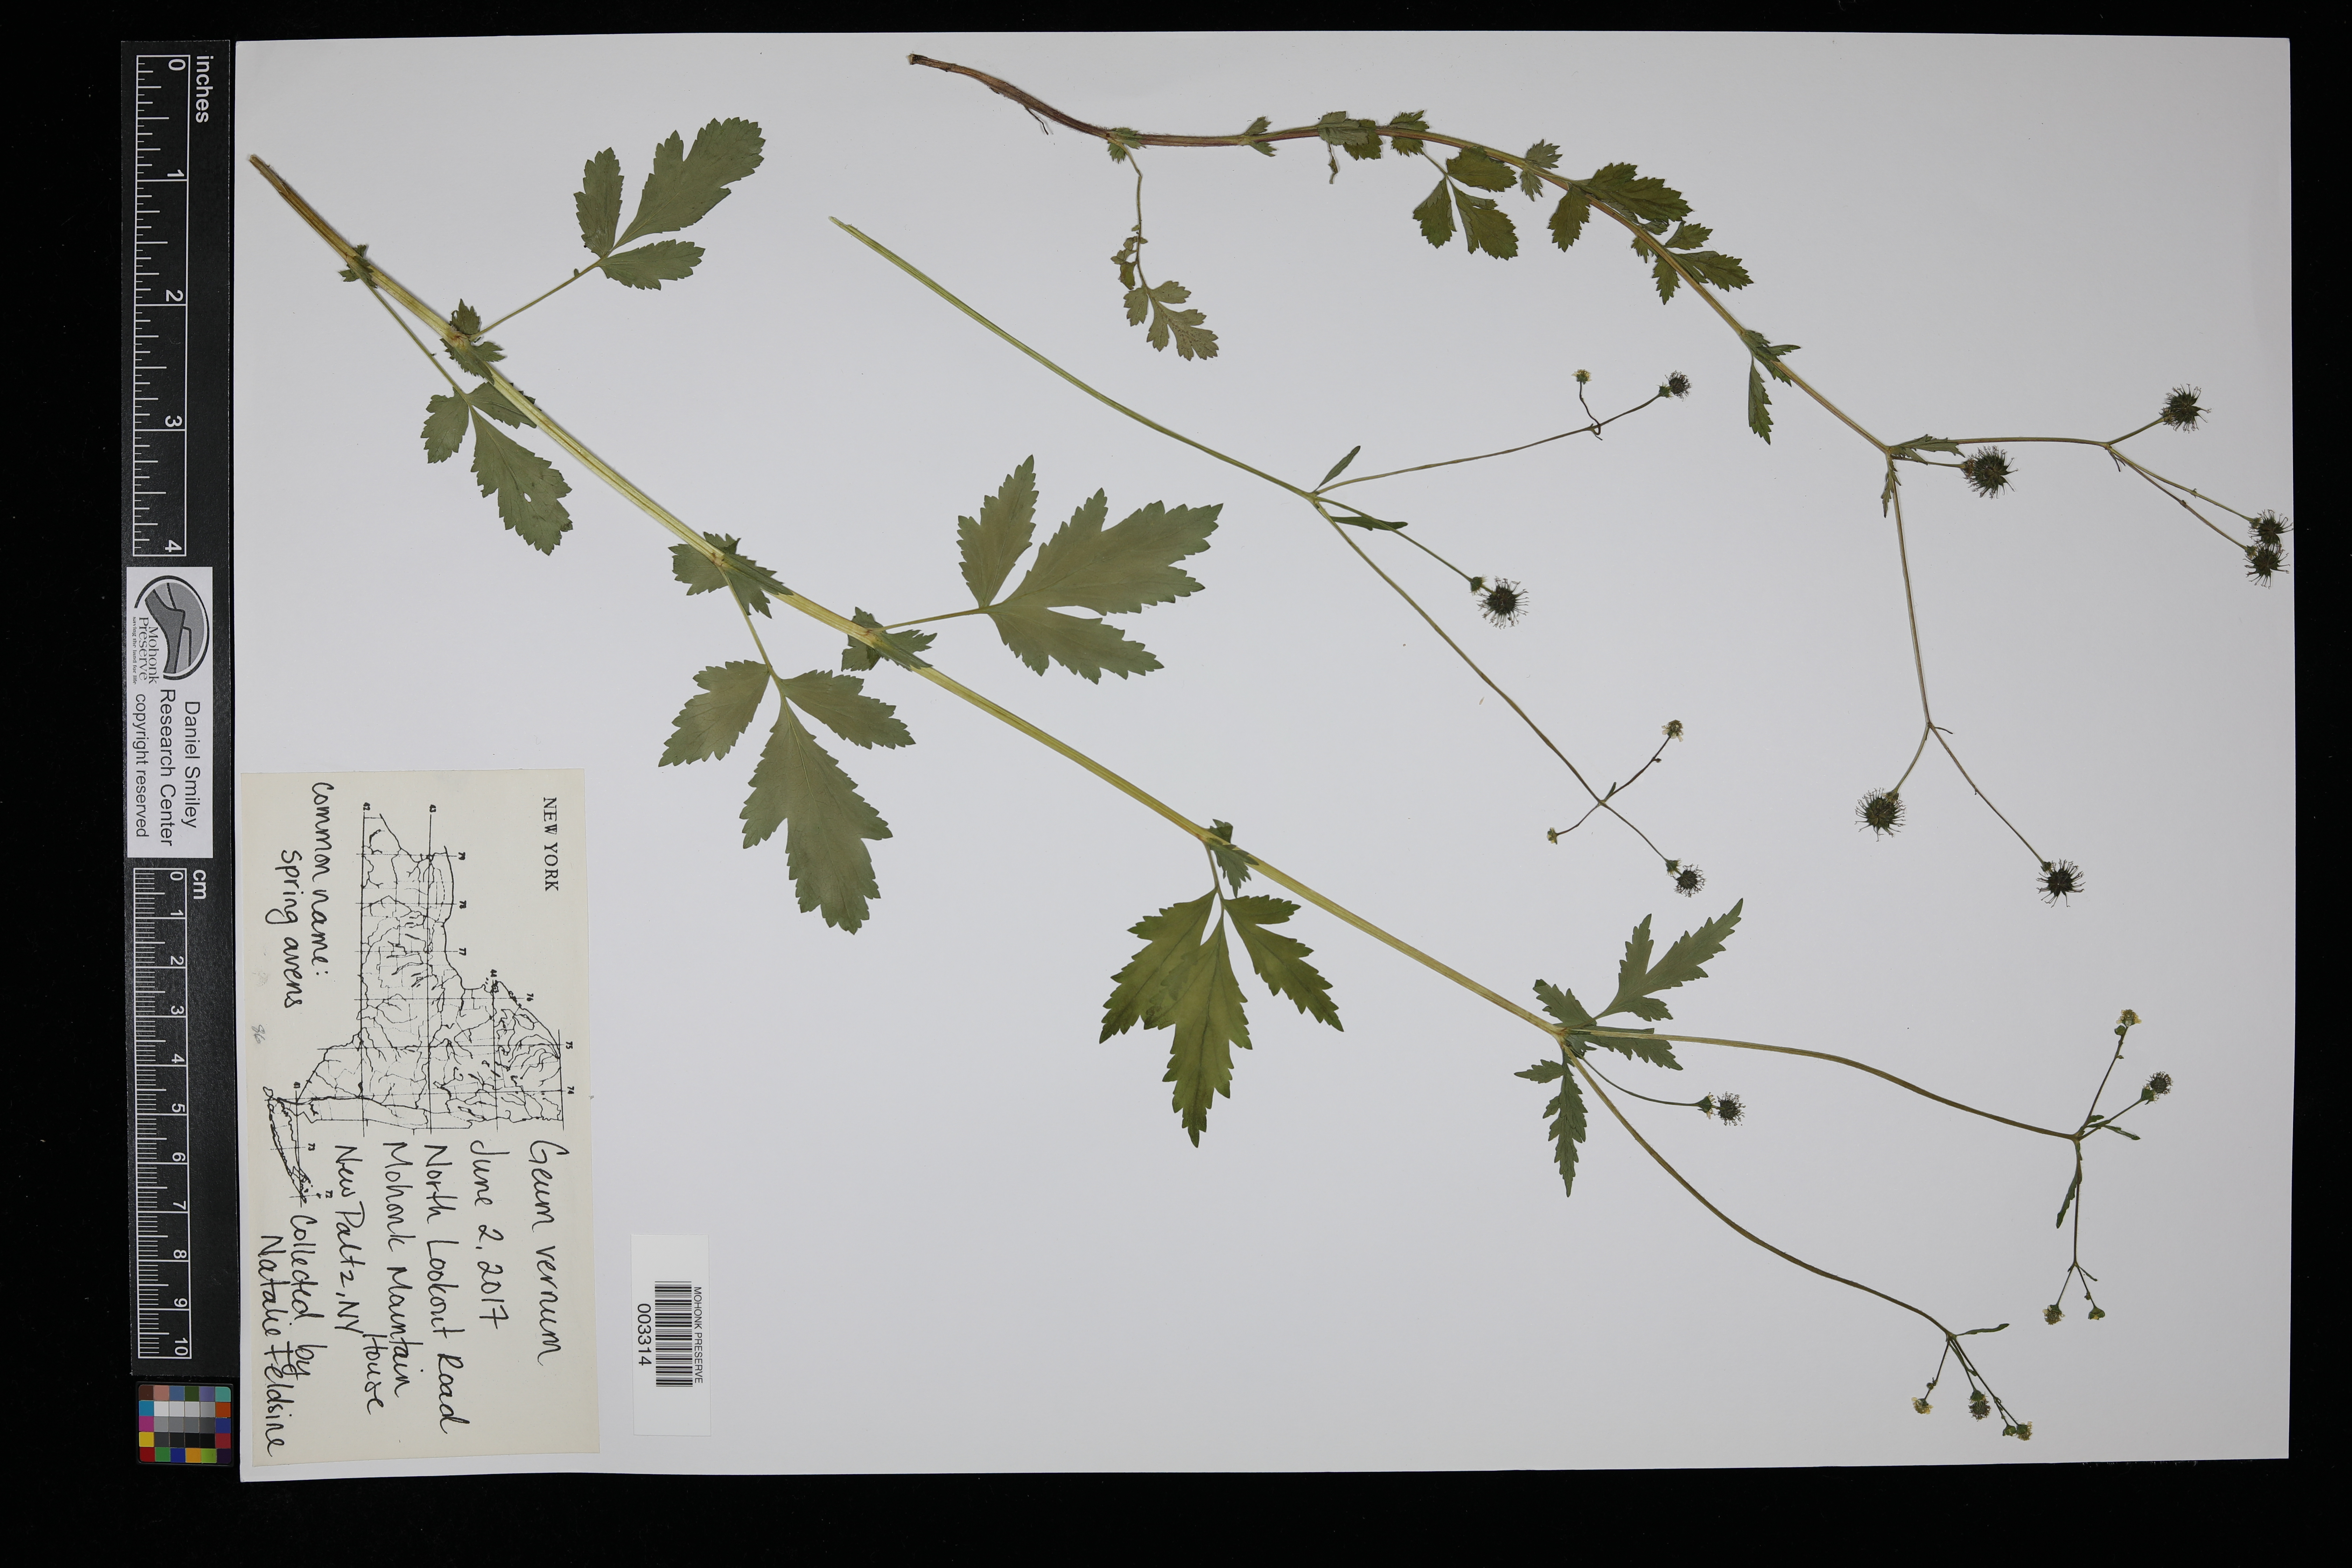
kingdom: Plantae
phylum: Tracheophyta
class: Magnoliopsida
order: Rosales
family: Rosaceae
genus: Geum
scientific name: Geum vernum
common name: Spring avens
